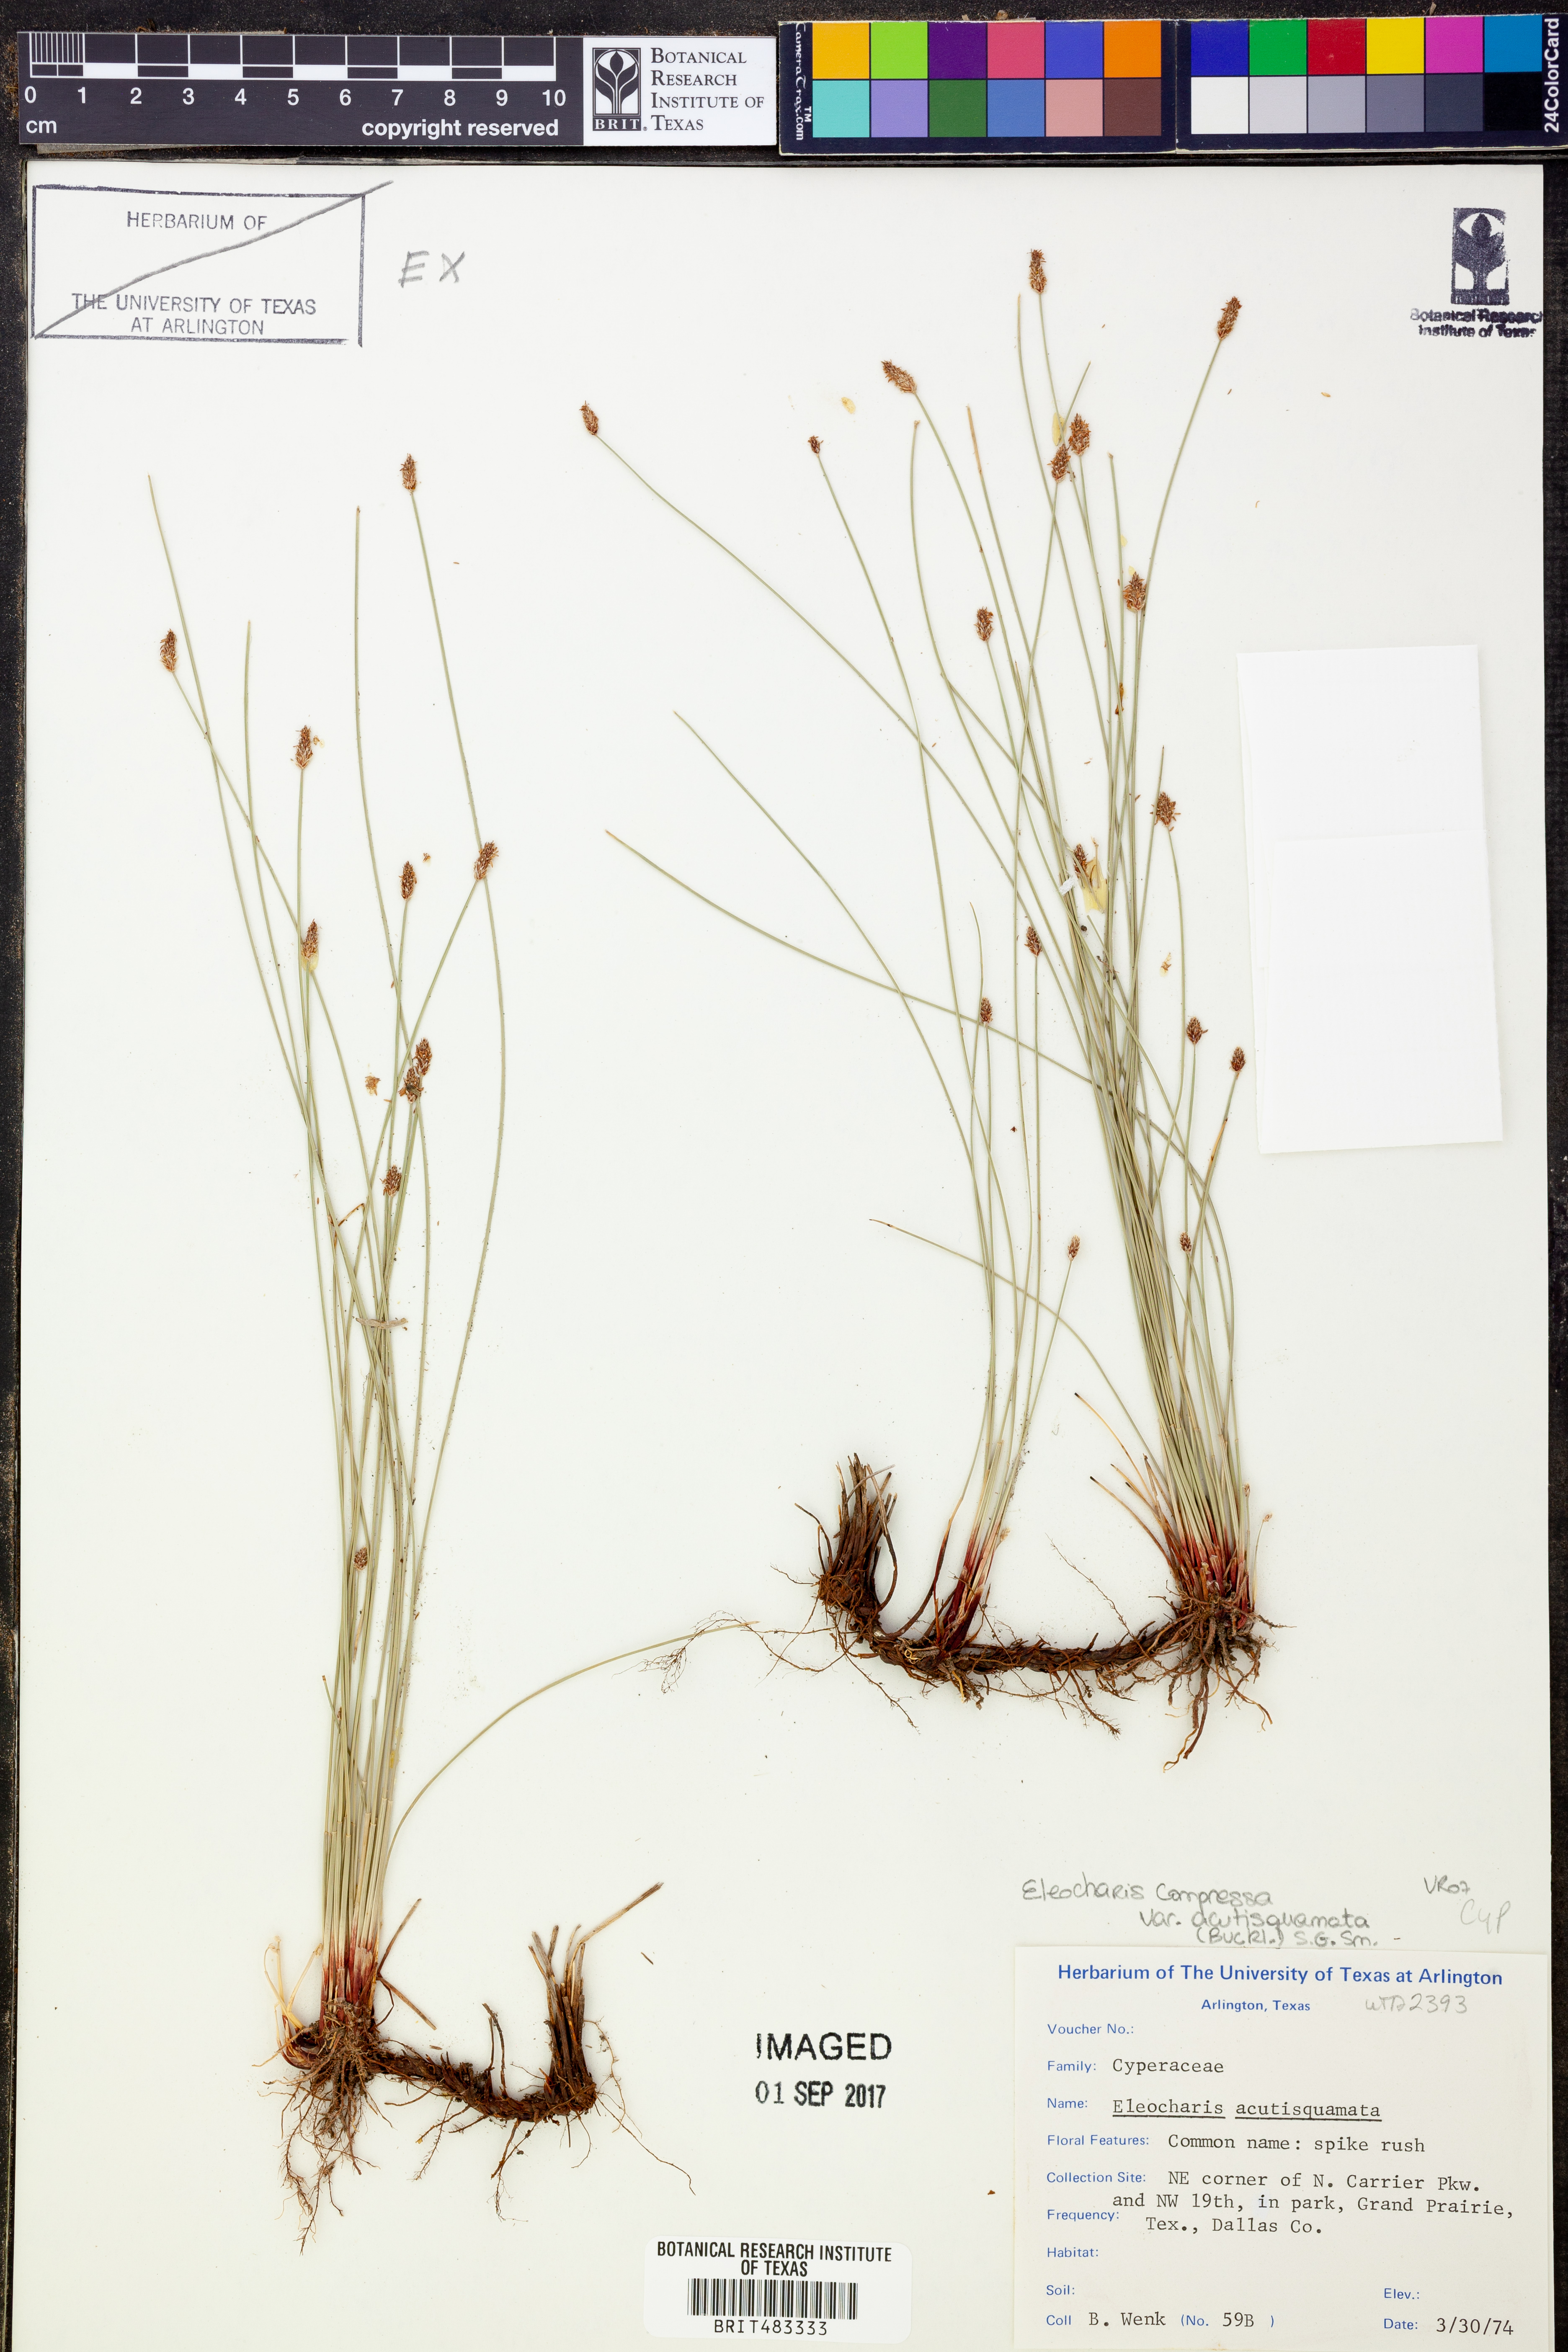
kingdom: Plantae
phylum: Tracheophyta
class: Liliopsida
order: Poales
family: Cyperaceae
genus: Eleocharis
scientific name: Eleocharis compressa
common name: Flat-stem spike-rush
